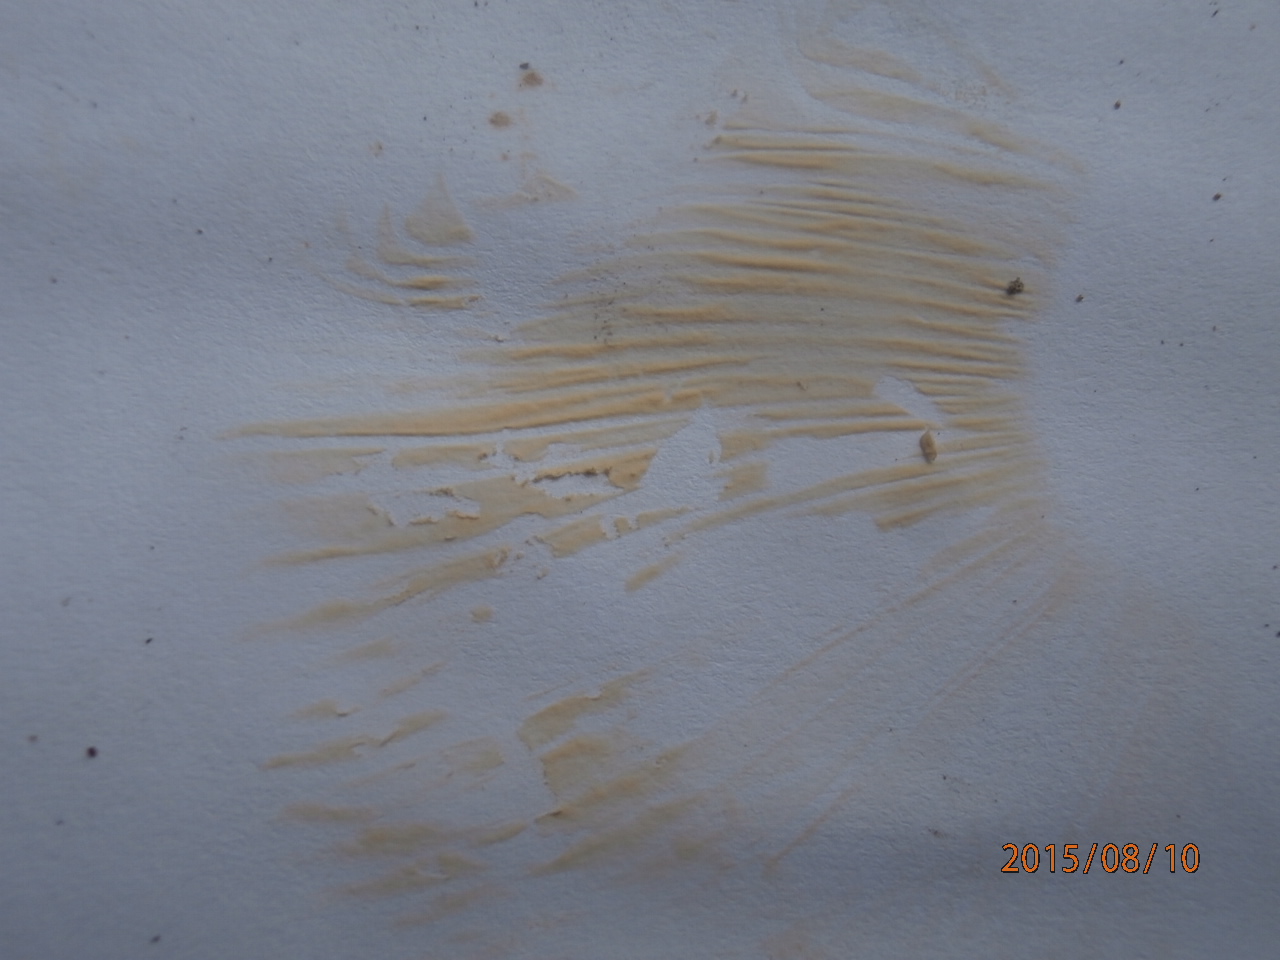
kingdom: Fungi
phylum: Basidiomycota
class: Agaricomycetes
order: Russulales
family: Russulaceae
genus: Russula
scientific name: Russula graveolens
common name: bugtet skørhat
